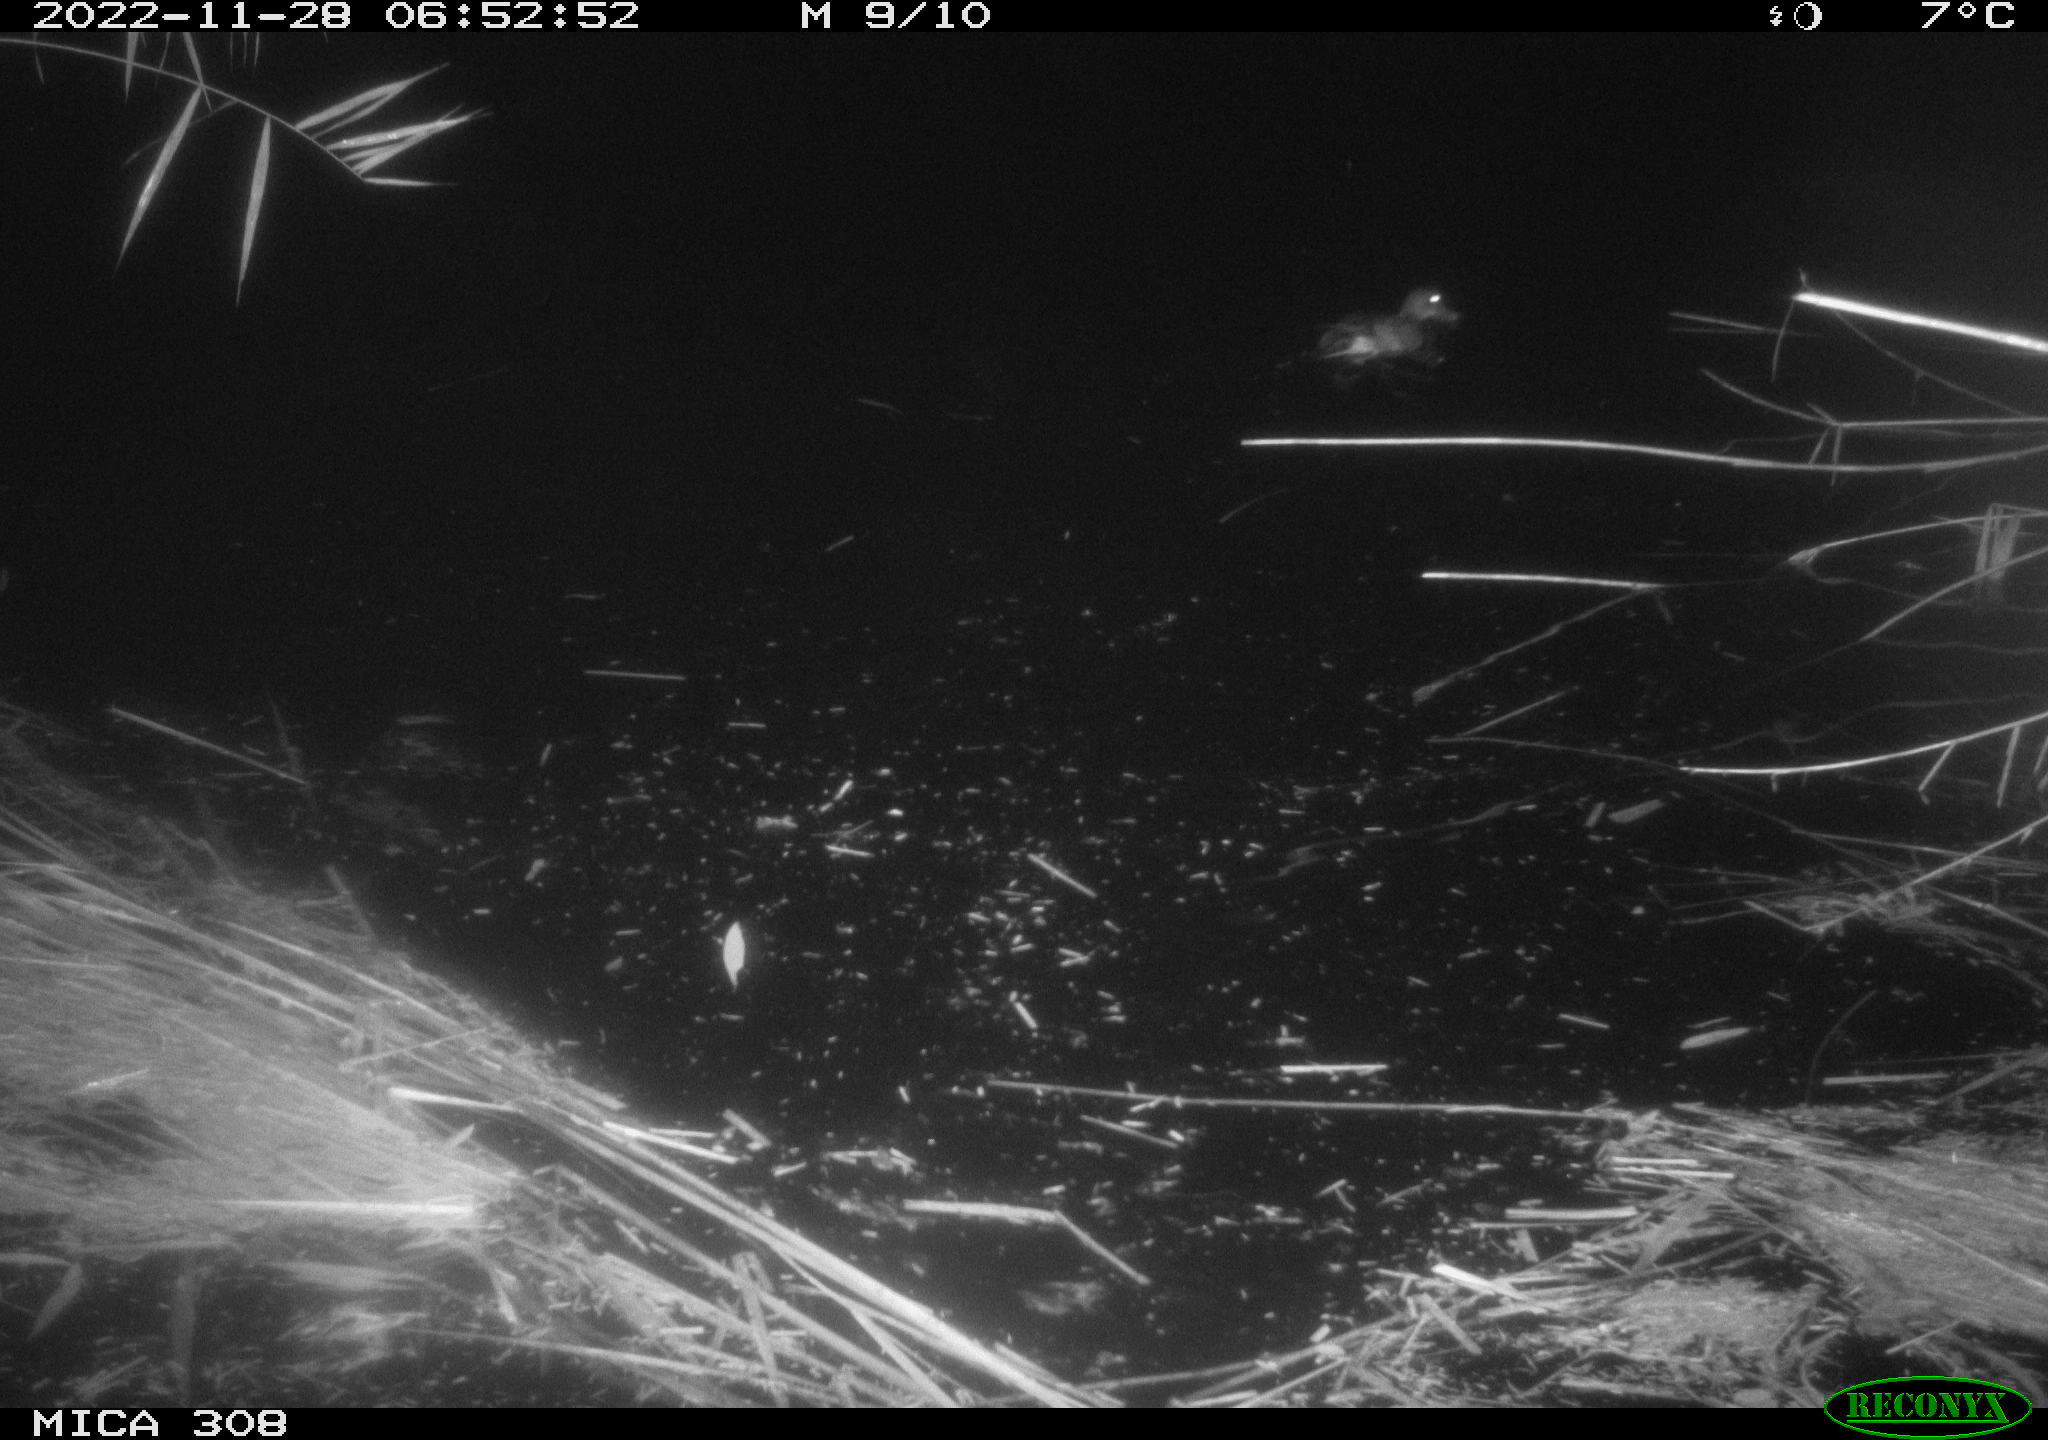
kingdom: Animalia
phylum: Chordata
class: Aves
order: Anseriformes
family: Anatidae
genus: Anas
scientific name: Anas
